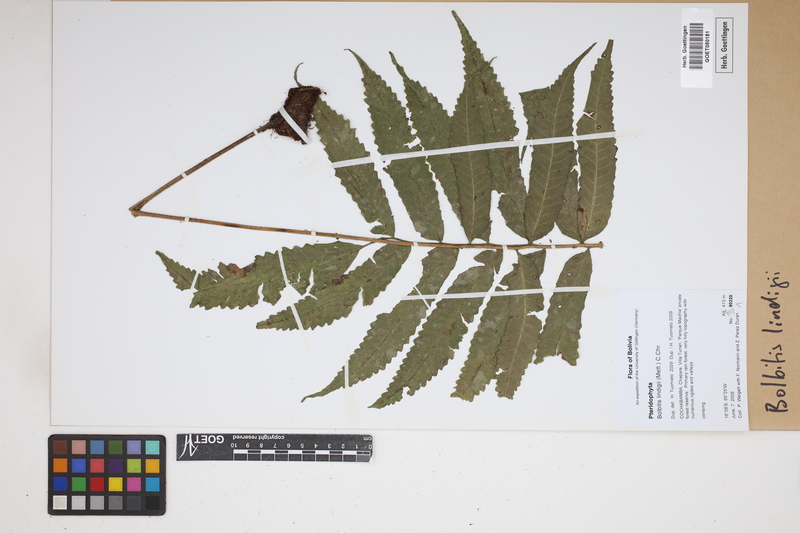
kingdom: Plantae
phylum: Tracheophyta
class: Polypodiopsida
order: Polypodiales
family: Dryopteridaceae
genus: Mickelia
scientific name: Mickelia lindigii
